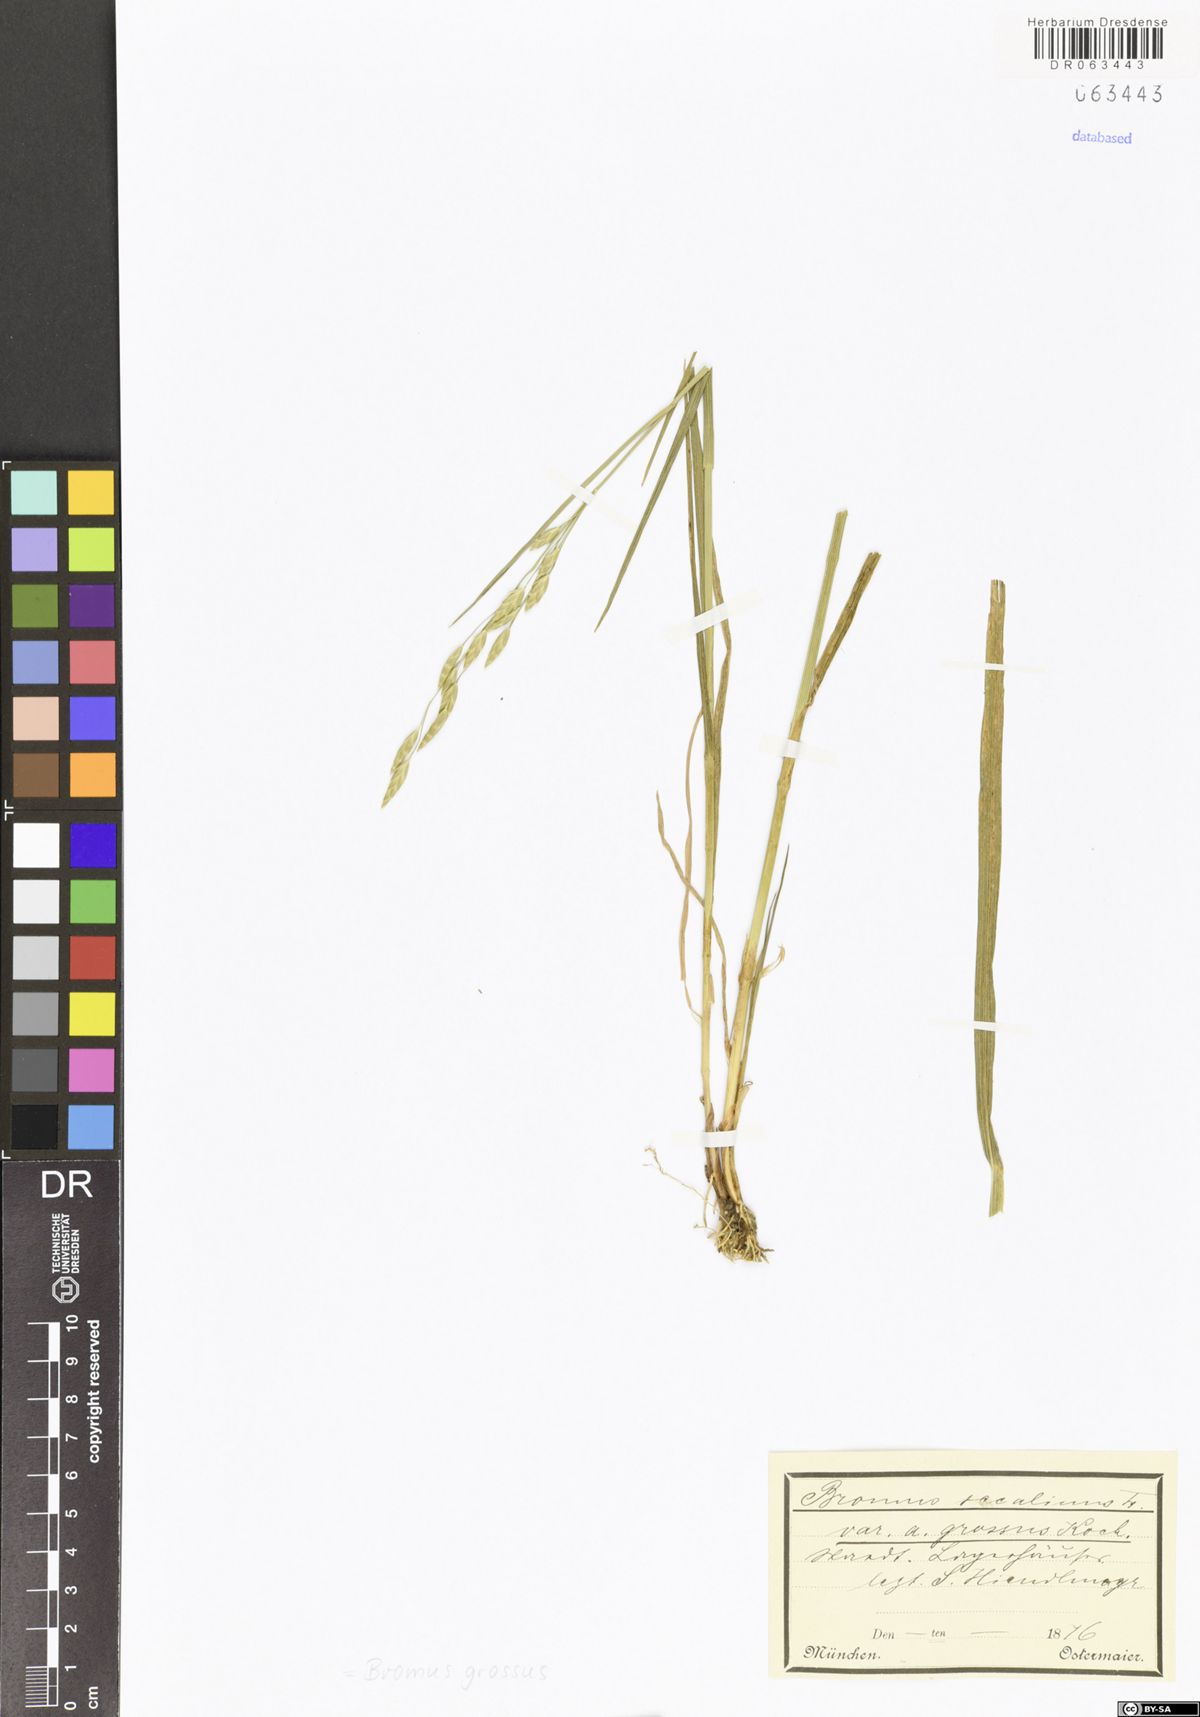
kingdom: Plantae
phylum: Tracheophyta
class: Liliopsida
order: Poales
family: Poaceae
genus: Bromus
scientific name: Bromus grossus
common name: Whiskered brome
